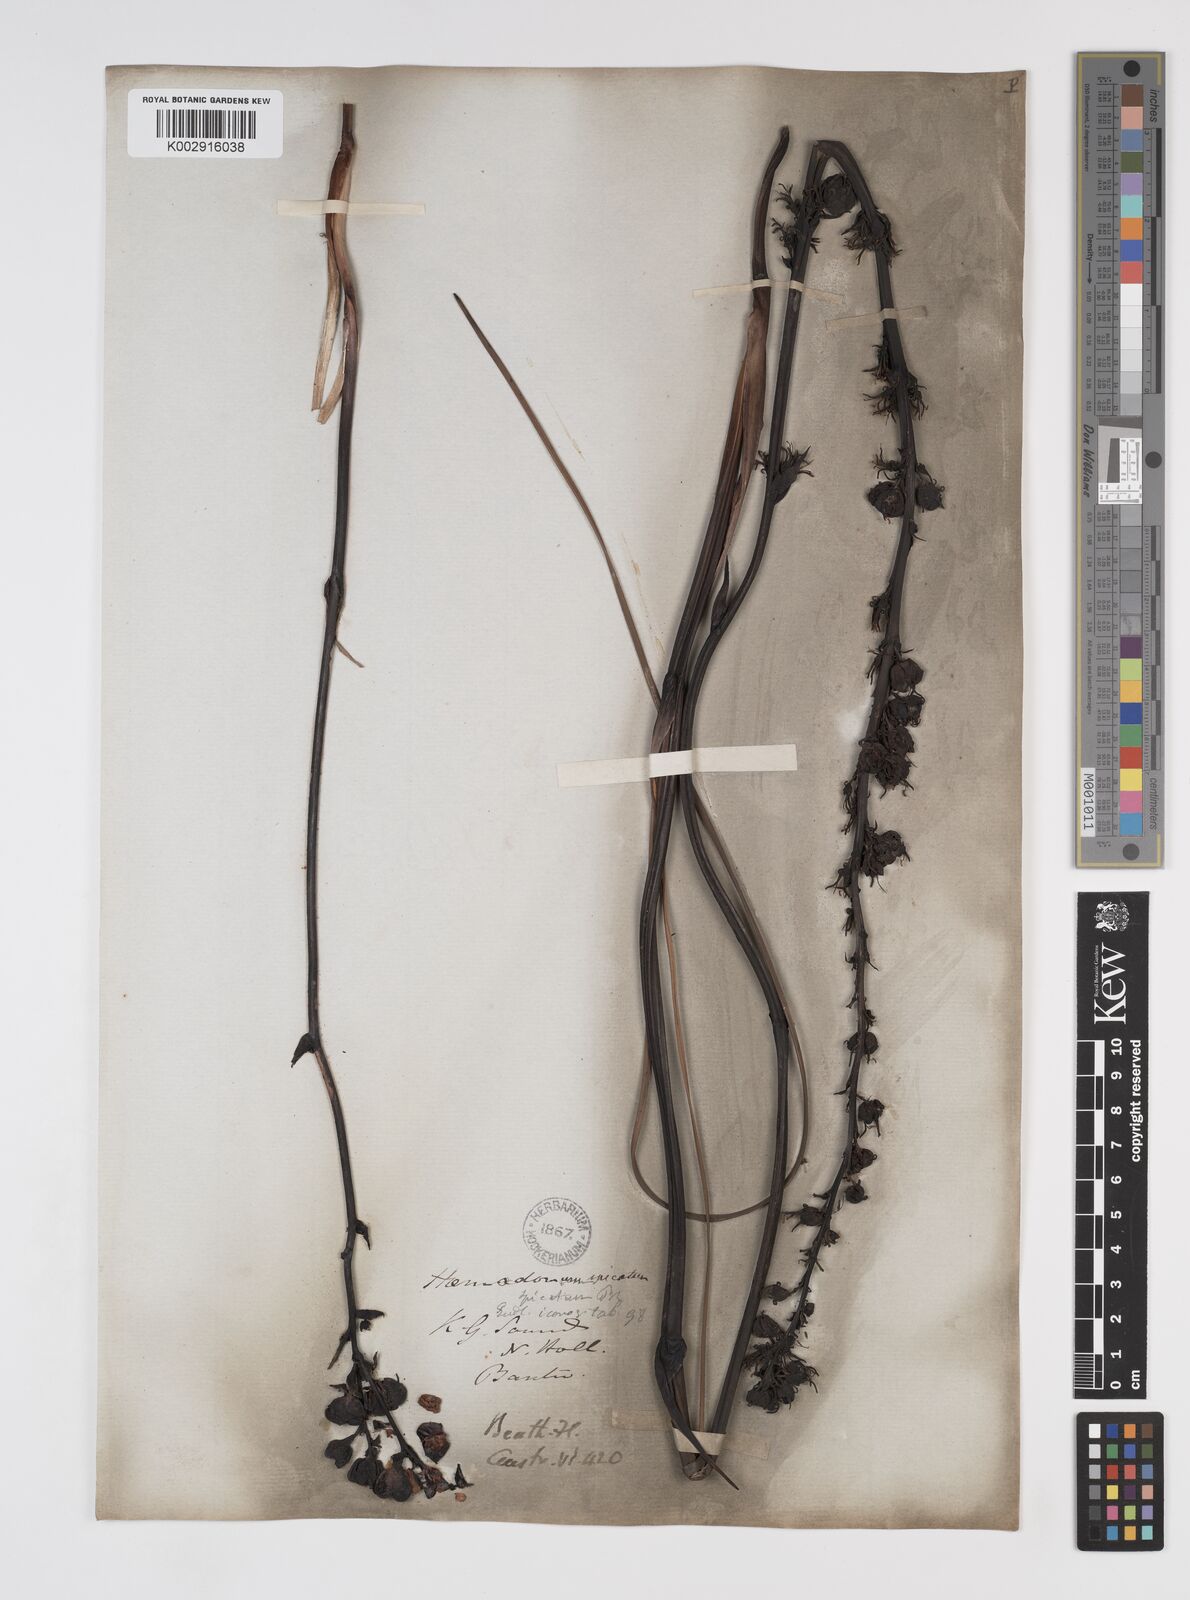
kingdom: Plantae
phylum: Tracheophyta
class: Liliopsida
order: Commelinales
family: Haemodoraceae
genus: Haemodorum
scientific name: Haemodorum spicatum
